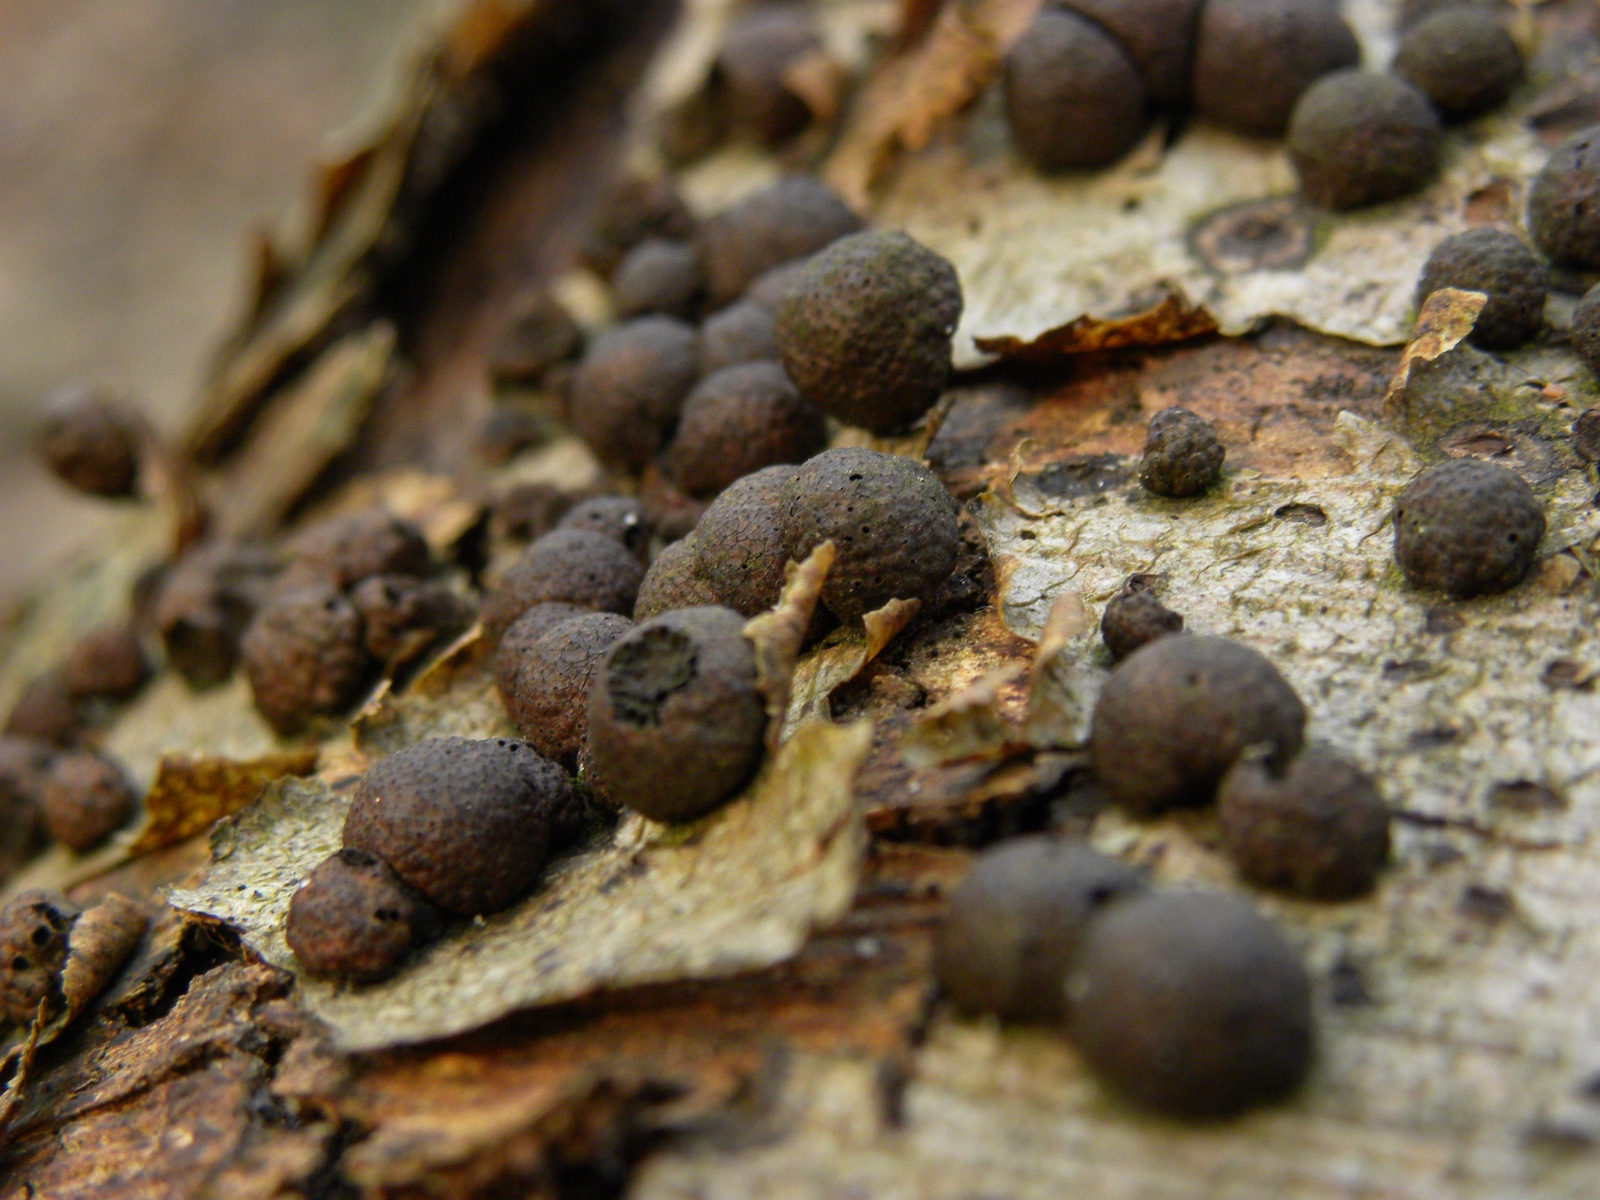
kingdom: Fungi
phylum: Ascomycota
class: Sordariomycetes
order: Xylariales
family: Hypoxylaceae
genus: Hypoxylon
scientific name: Hypoxylon fragiforme
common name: kuljordbær
